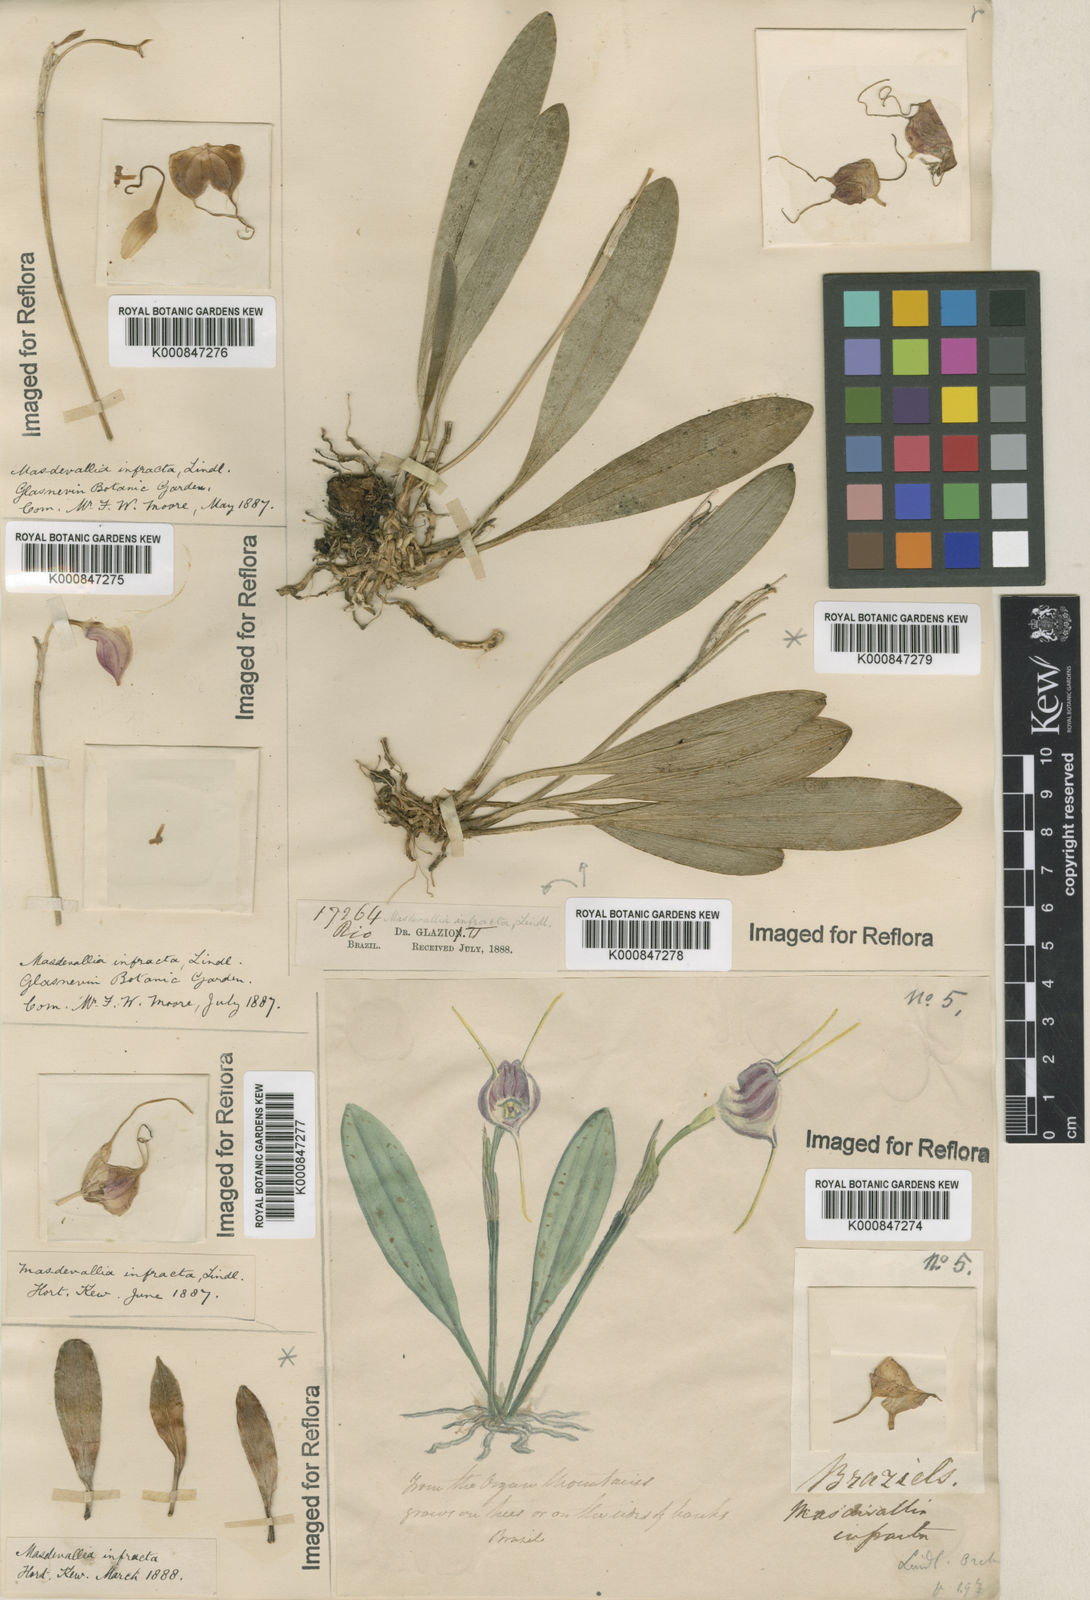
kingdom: Plantae
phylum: Tracheophyta
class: Liliopsida
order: Asparagales
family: Orchidaceae
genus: Masdevallia
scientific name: Masdevallia infracta
